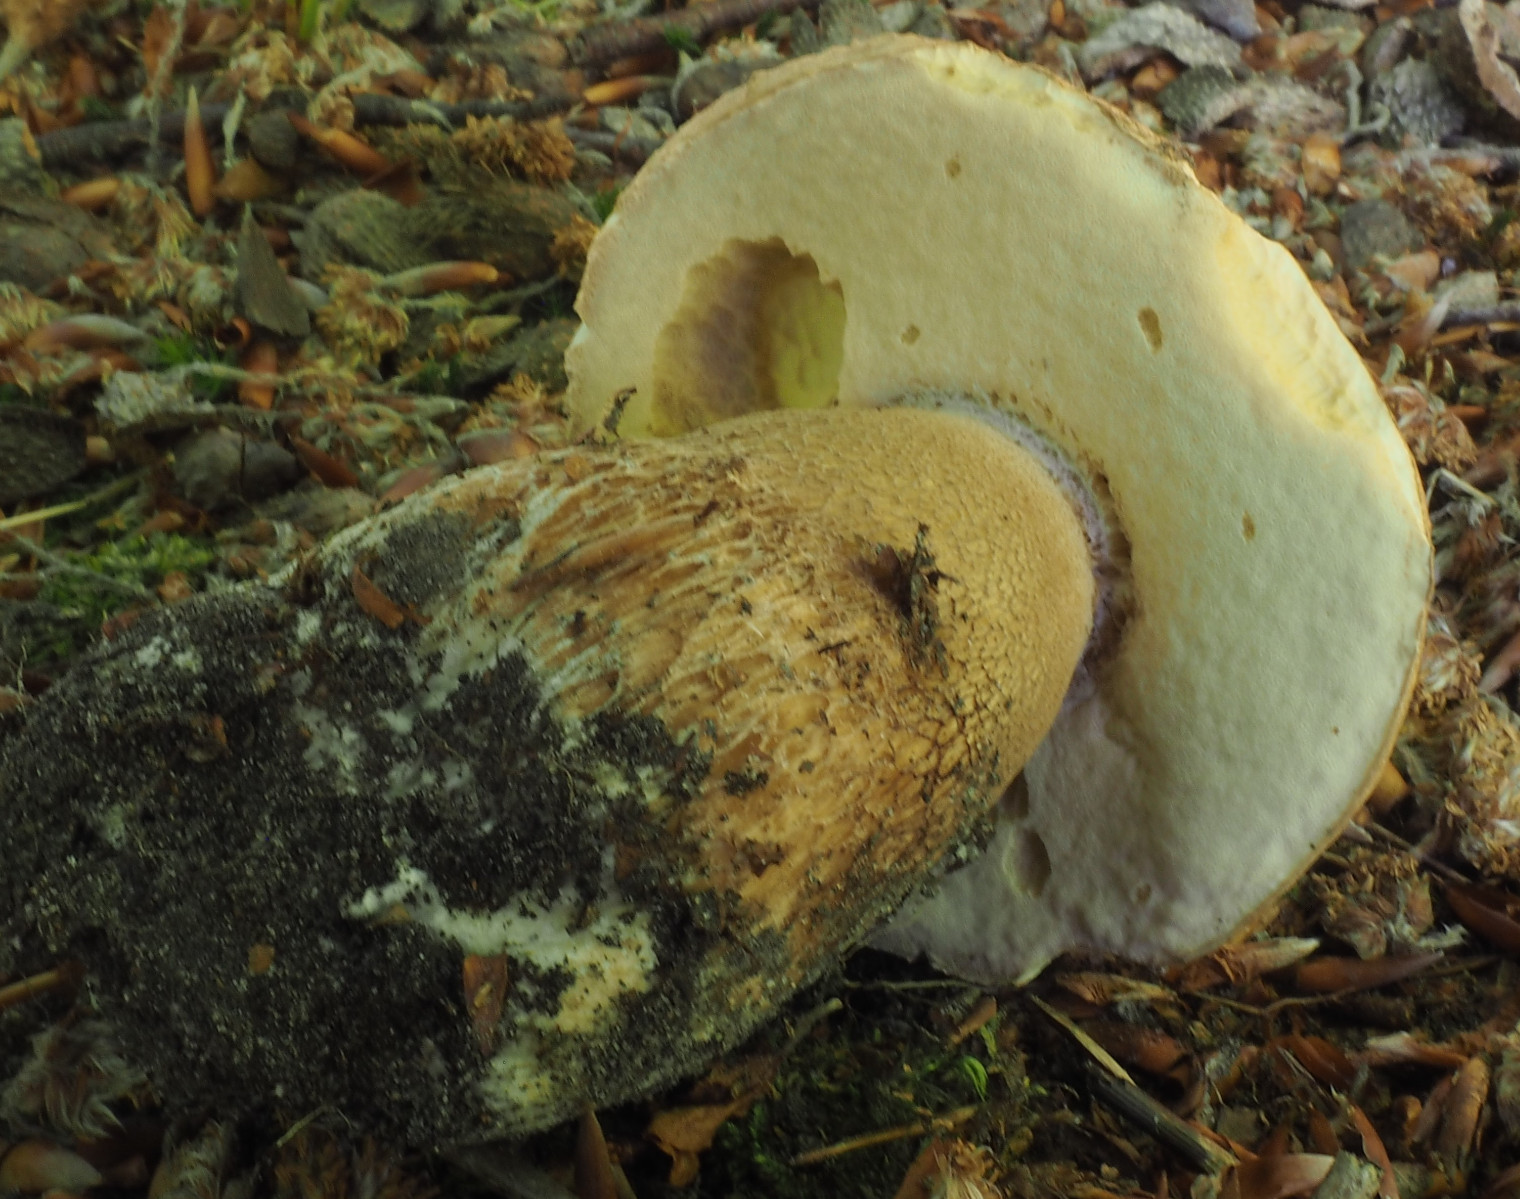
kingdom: Fungi
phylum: Basidiomycota
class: Agaricomycetes
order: Boletales
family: Boletaceae
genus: Boletus
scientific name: Boletus reticulatus
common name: sommer-rørhat
